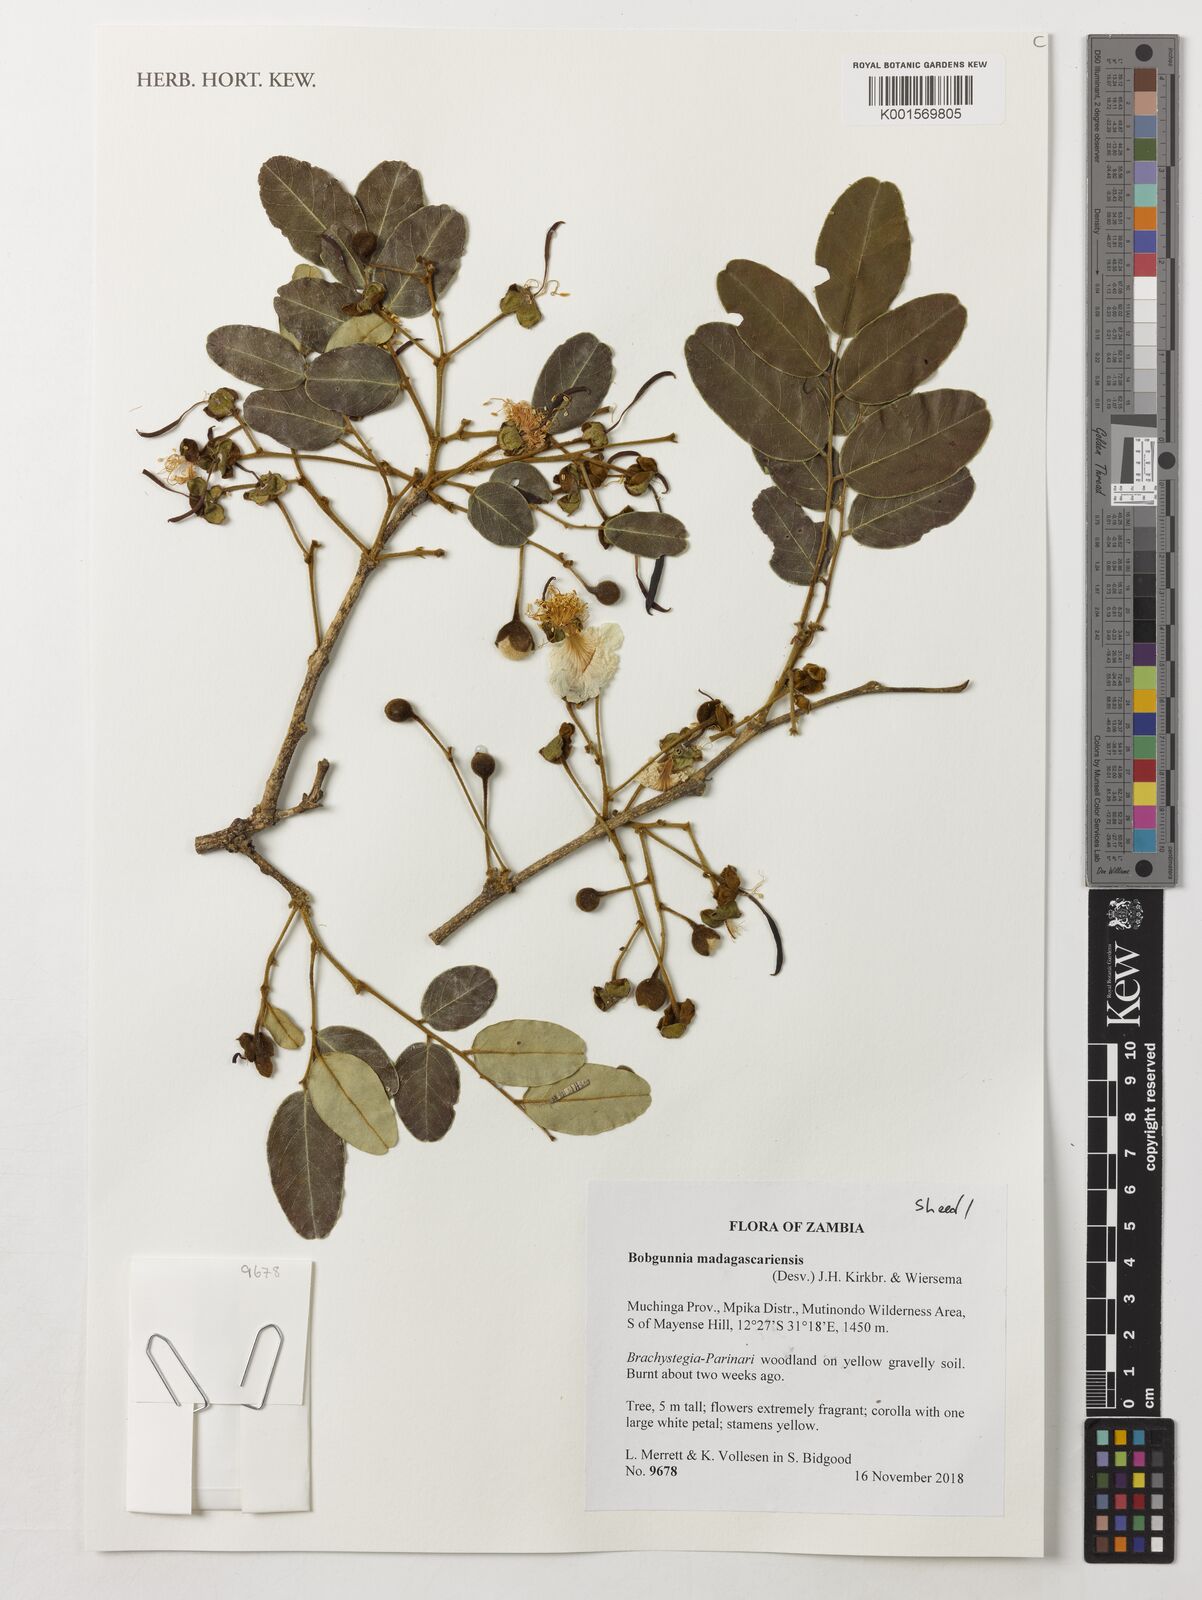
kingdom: Plantae
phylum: Tracheophyta
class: Magnoliopsida
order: Fabales
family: Fabaceae
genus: Bobgunnia
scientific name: Bobgunnia madagascariensis
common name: Snake bean plant
